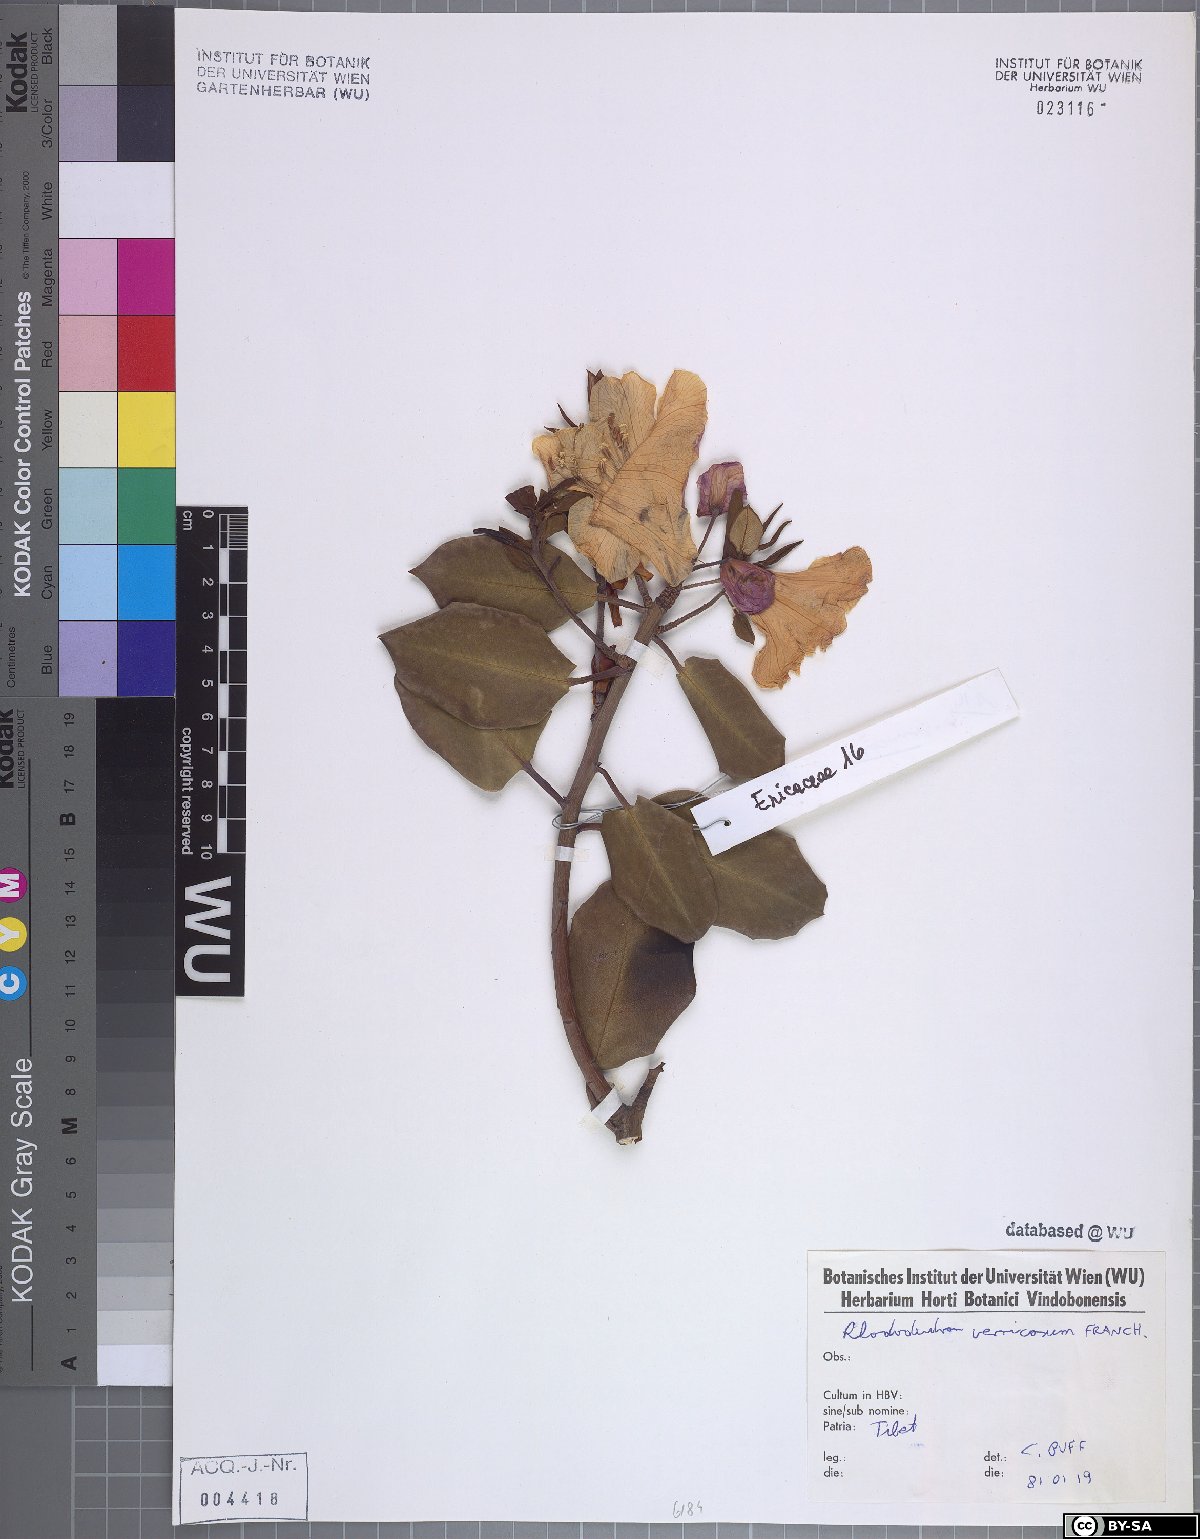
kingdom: Plantae
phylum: Tracheophyta
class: Magnoliopsida
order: Ericales
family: Ericaceae
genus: Rhododendron
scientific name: Rhododendron vernicosum
